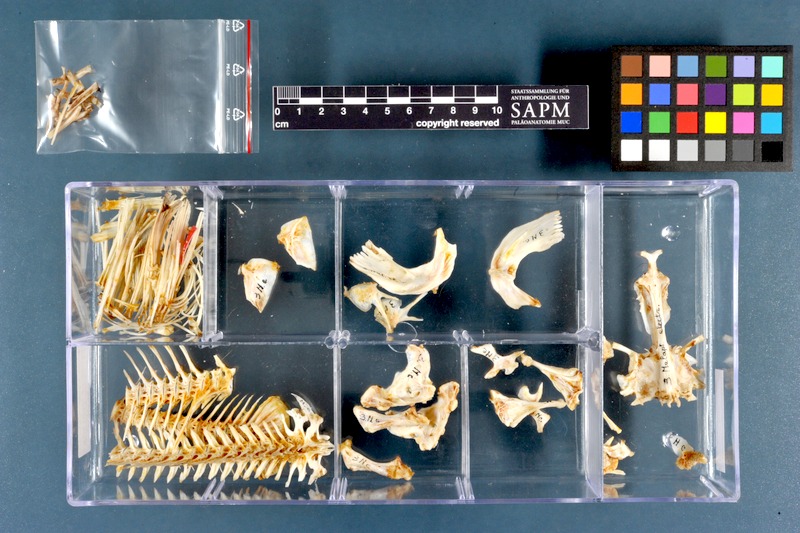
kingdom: Animalia
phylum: Chordata
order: Siluriformes
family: Malapteruridae
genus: Malapterurus
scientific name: Malapterurus electricus
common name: African electric catfish
